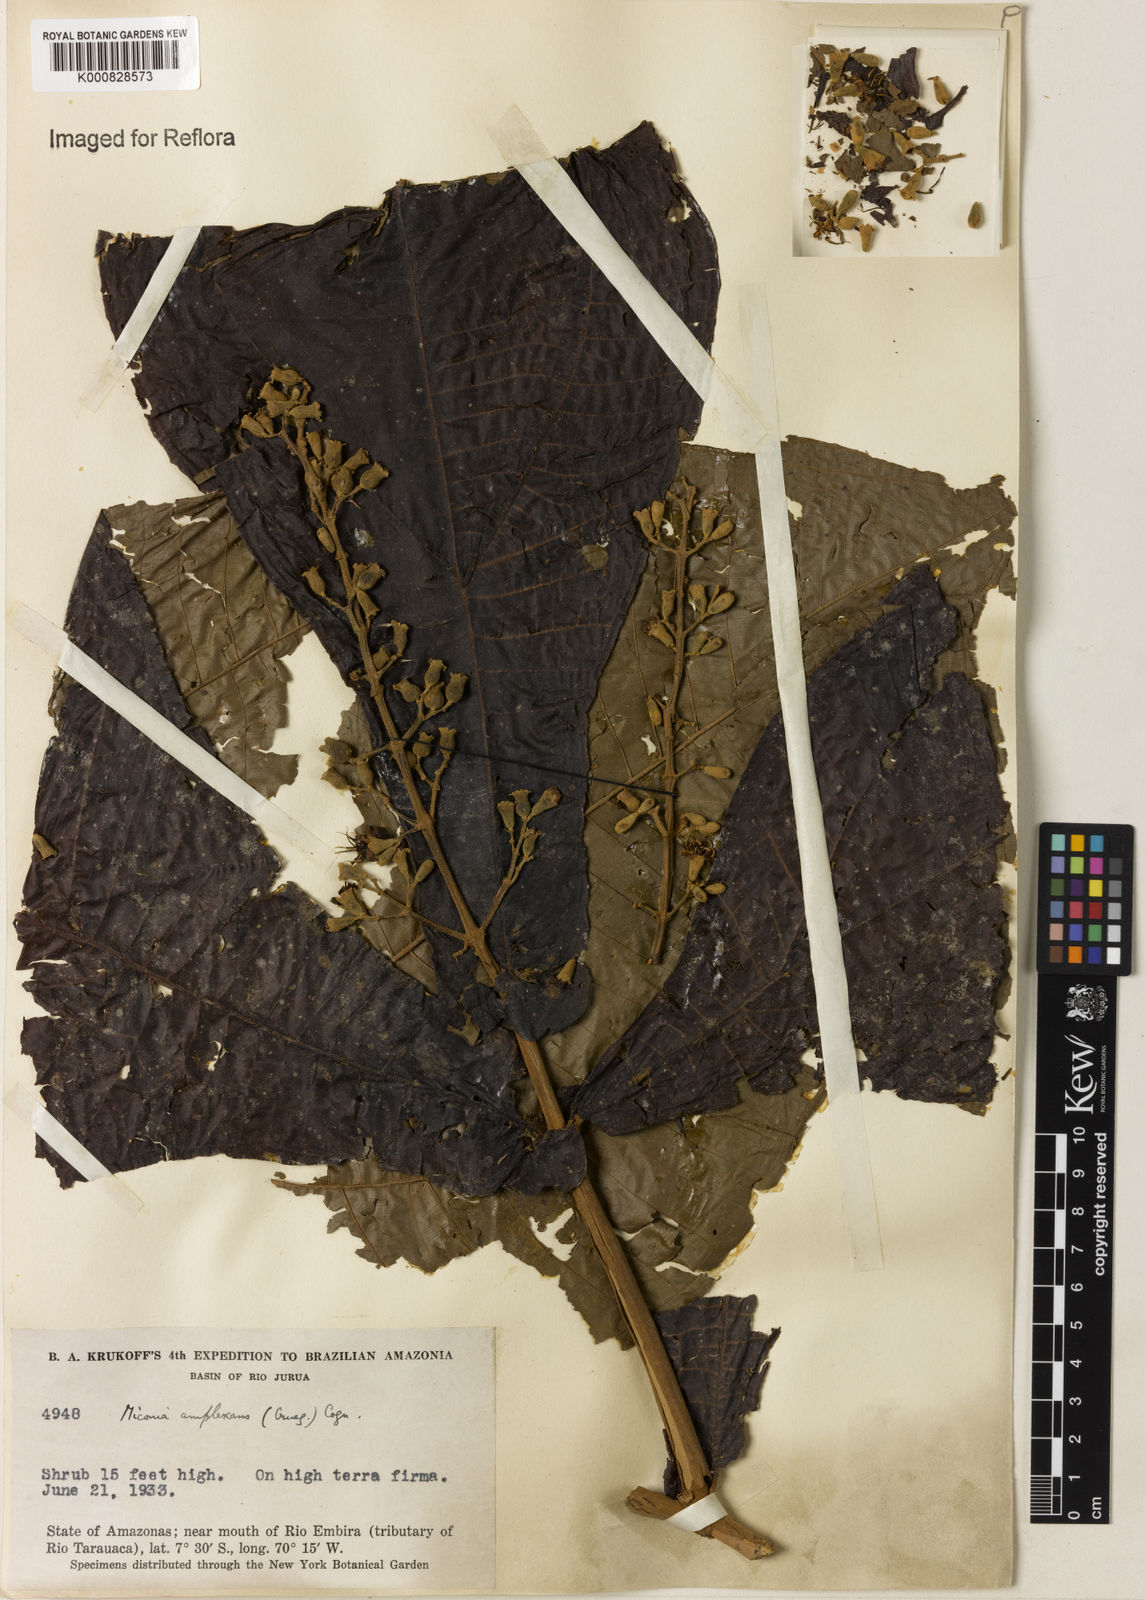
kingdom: Plantae
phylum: Tracheophyta
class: Magnoliopsida
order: Myrtales
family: Melastomataceae
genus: Miconia
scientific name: Miconia tomentosa
